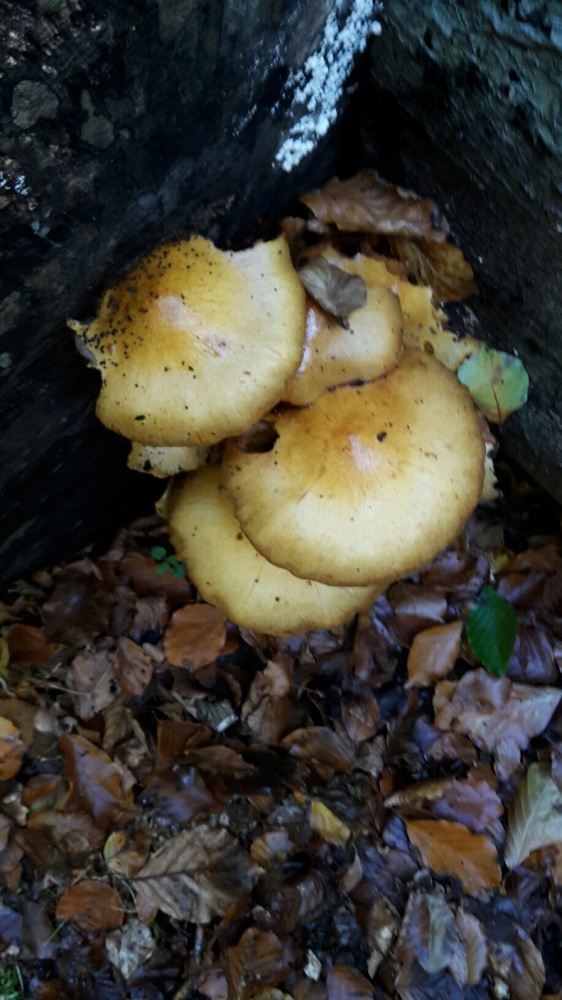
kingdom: Fungi
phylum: Basidiomycota
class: Agaricomycetes
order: Agaricales
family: Strophariaceae
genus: Pholiota
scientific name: Pholiota jahnii
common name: slimet skælhat
